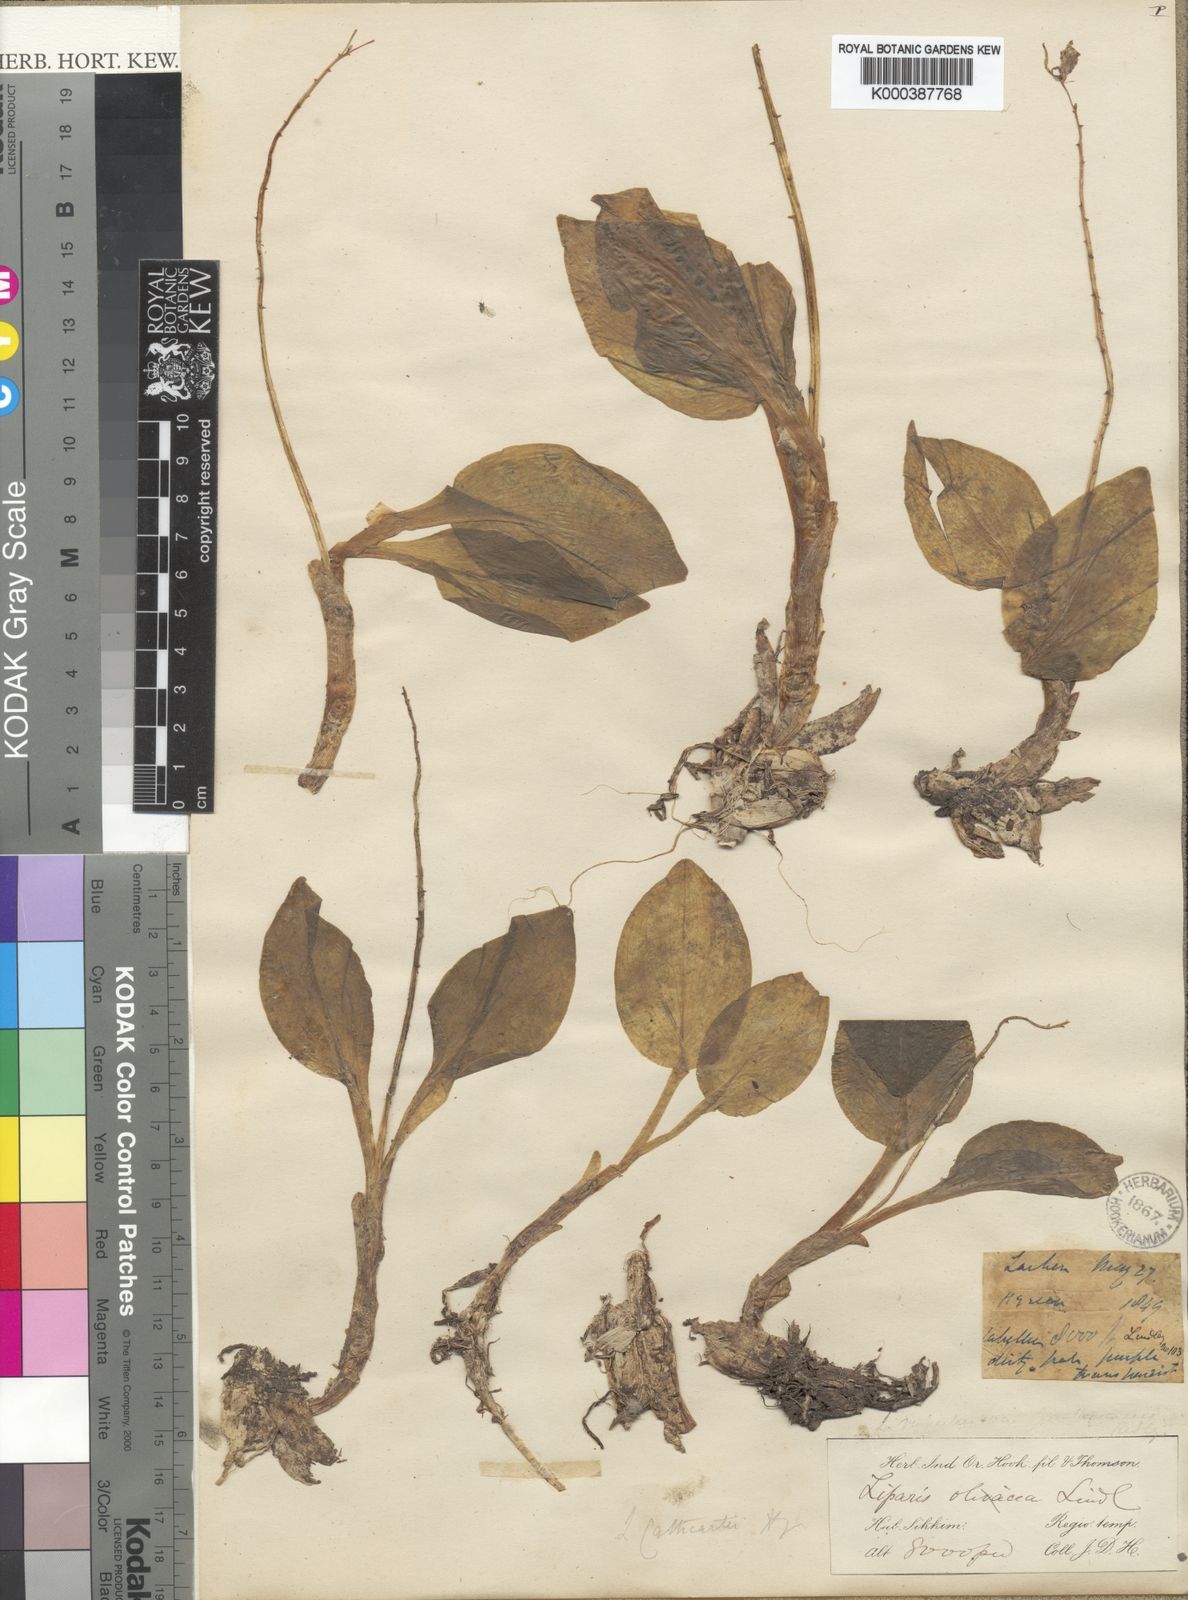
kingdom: Plantae
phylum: Tracheophyta
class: Liliopsida
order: Asparagales
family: Orchidaceae
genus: Liparis
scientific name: Liparis cathcartii
